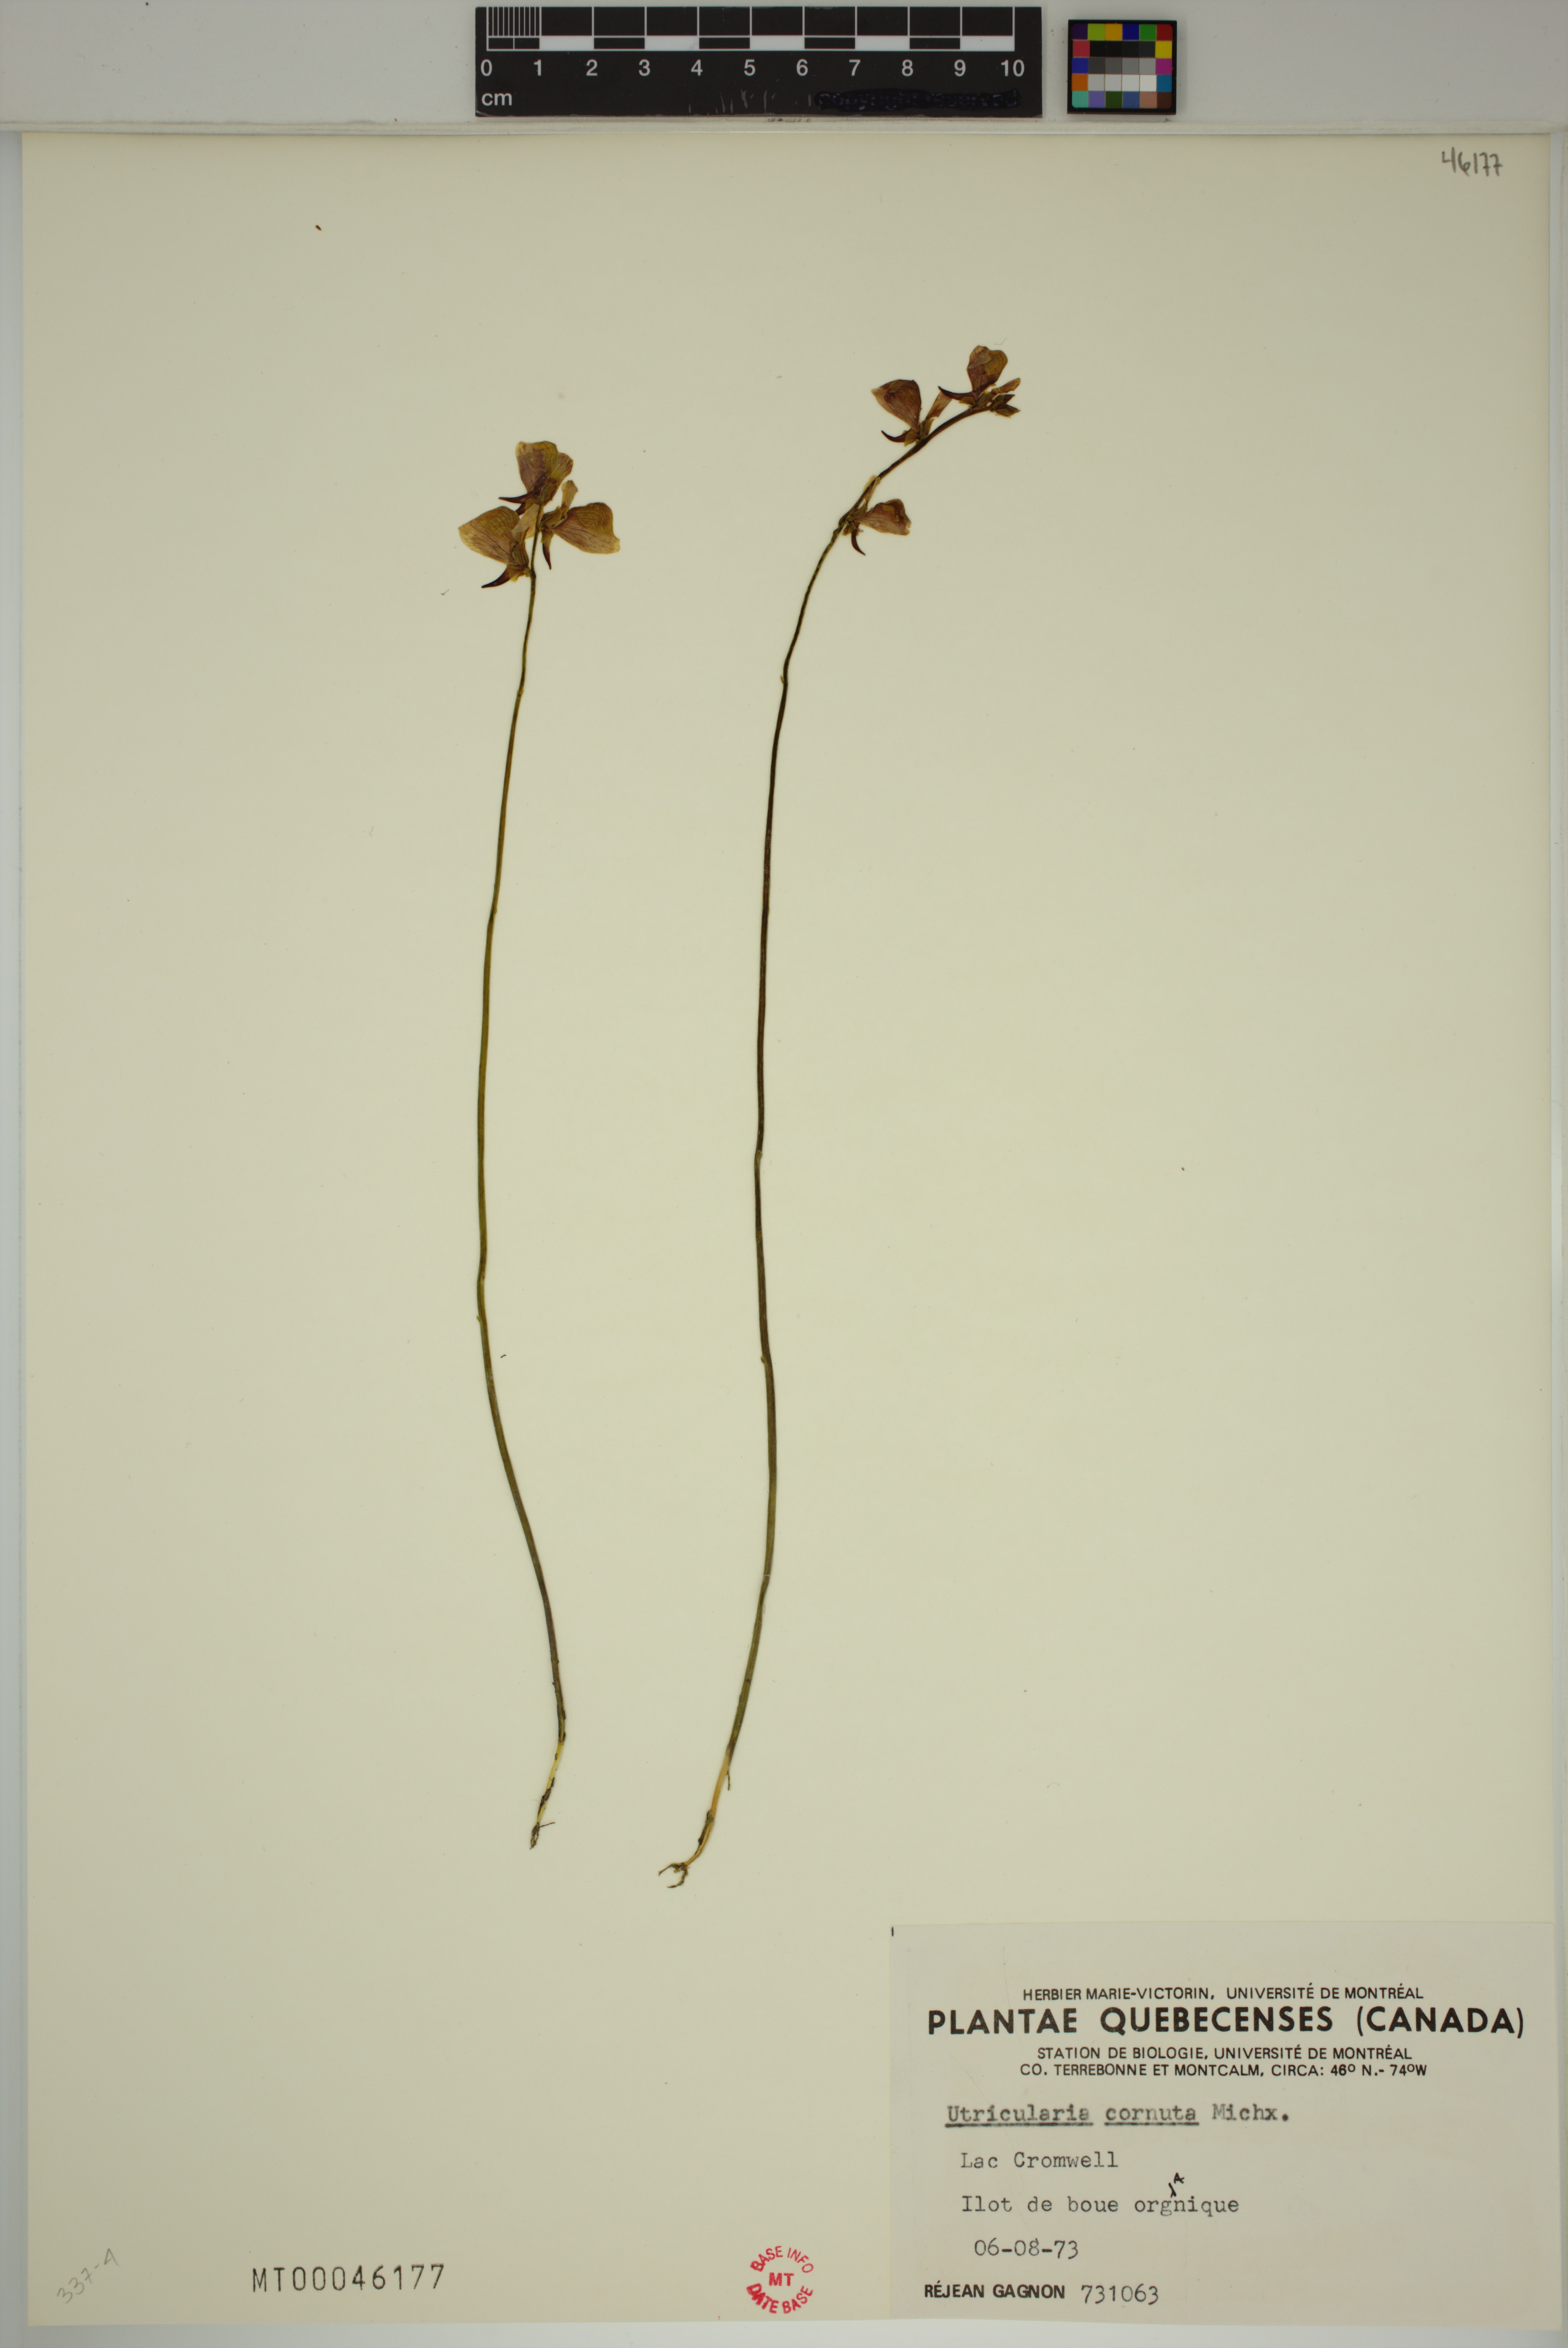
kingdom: Plantae
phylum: Tracheophyta
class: Magnoliopsida
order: Lamiales
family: Lentibulariaceae
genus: Utricularia
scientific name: Utricularia cornuta
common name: Horned bladderwort
